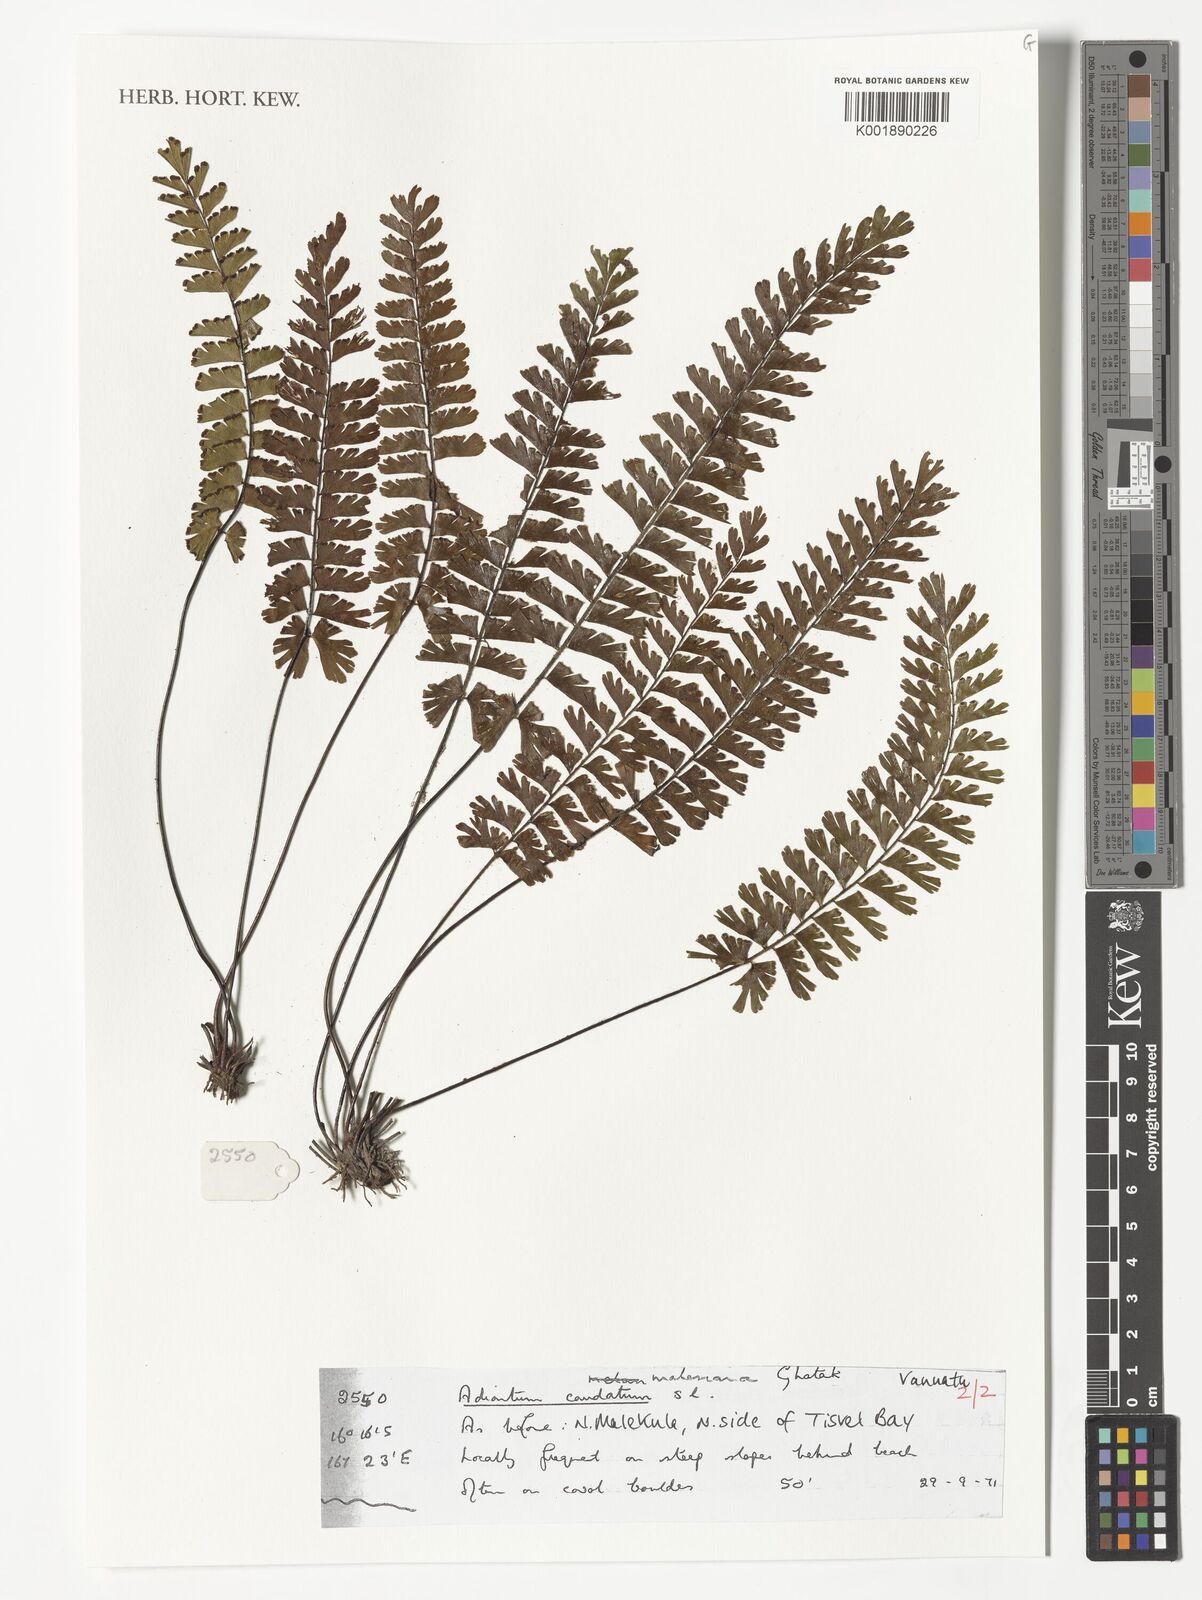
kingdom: Plantae
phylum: Tracheophyta
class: Polypodiopsida
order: Polypodiales
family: Pteridaceae
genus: Adiantum
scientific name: Adiantum caudatum
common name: Tailed maidenhair
